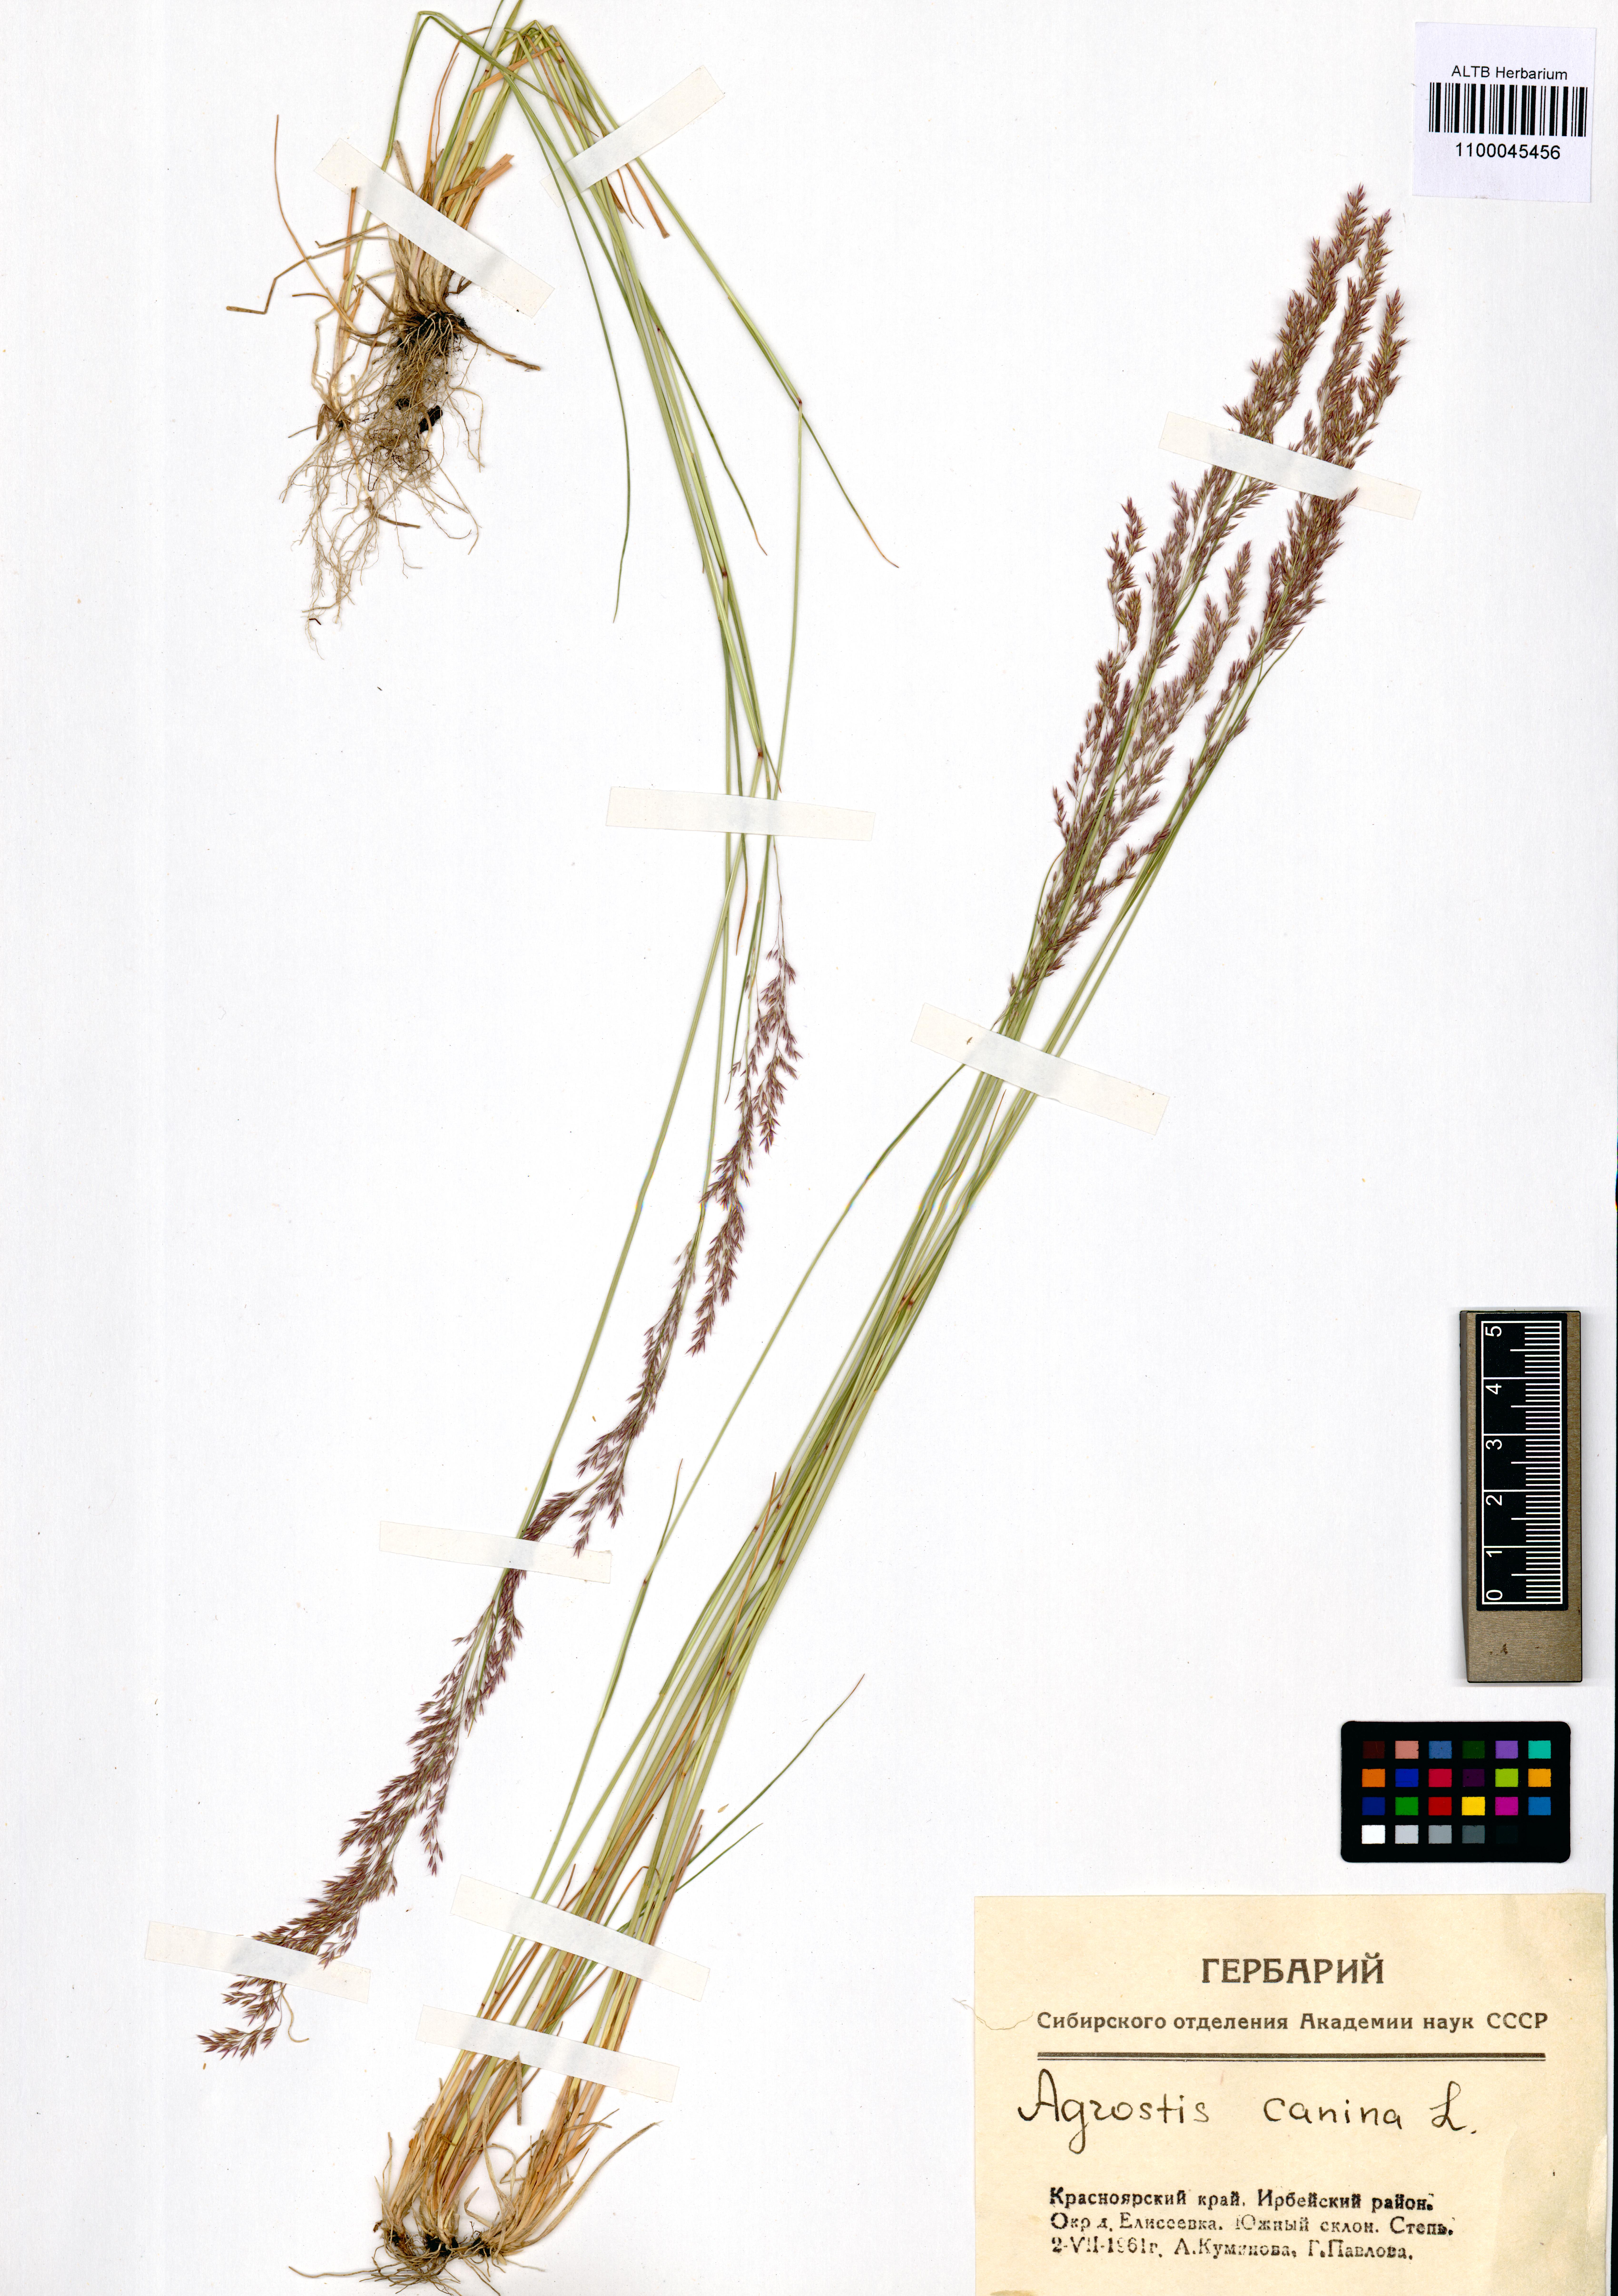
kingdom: Plantae
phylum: Tracheophyta
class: Liliopsida
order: Poales
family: Poaceae
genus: Agrostis
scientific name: Agrostis canina
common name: Velvet bent
